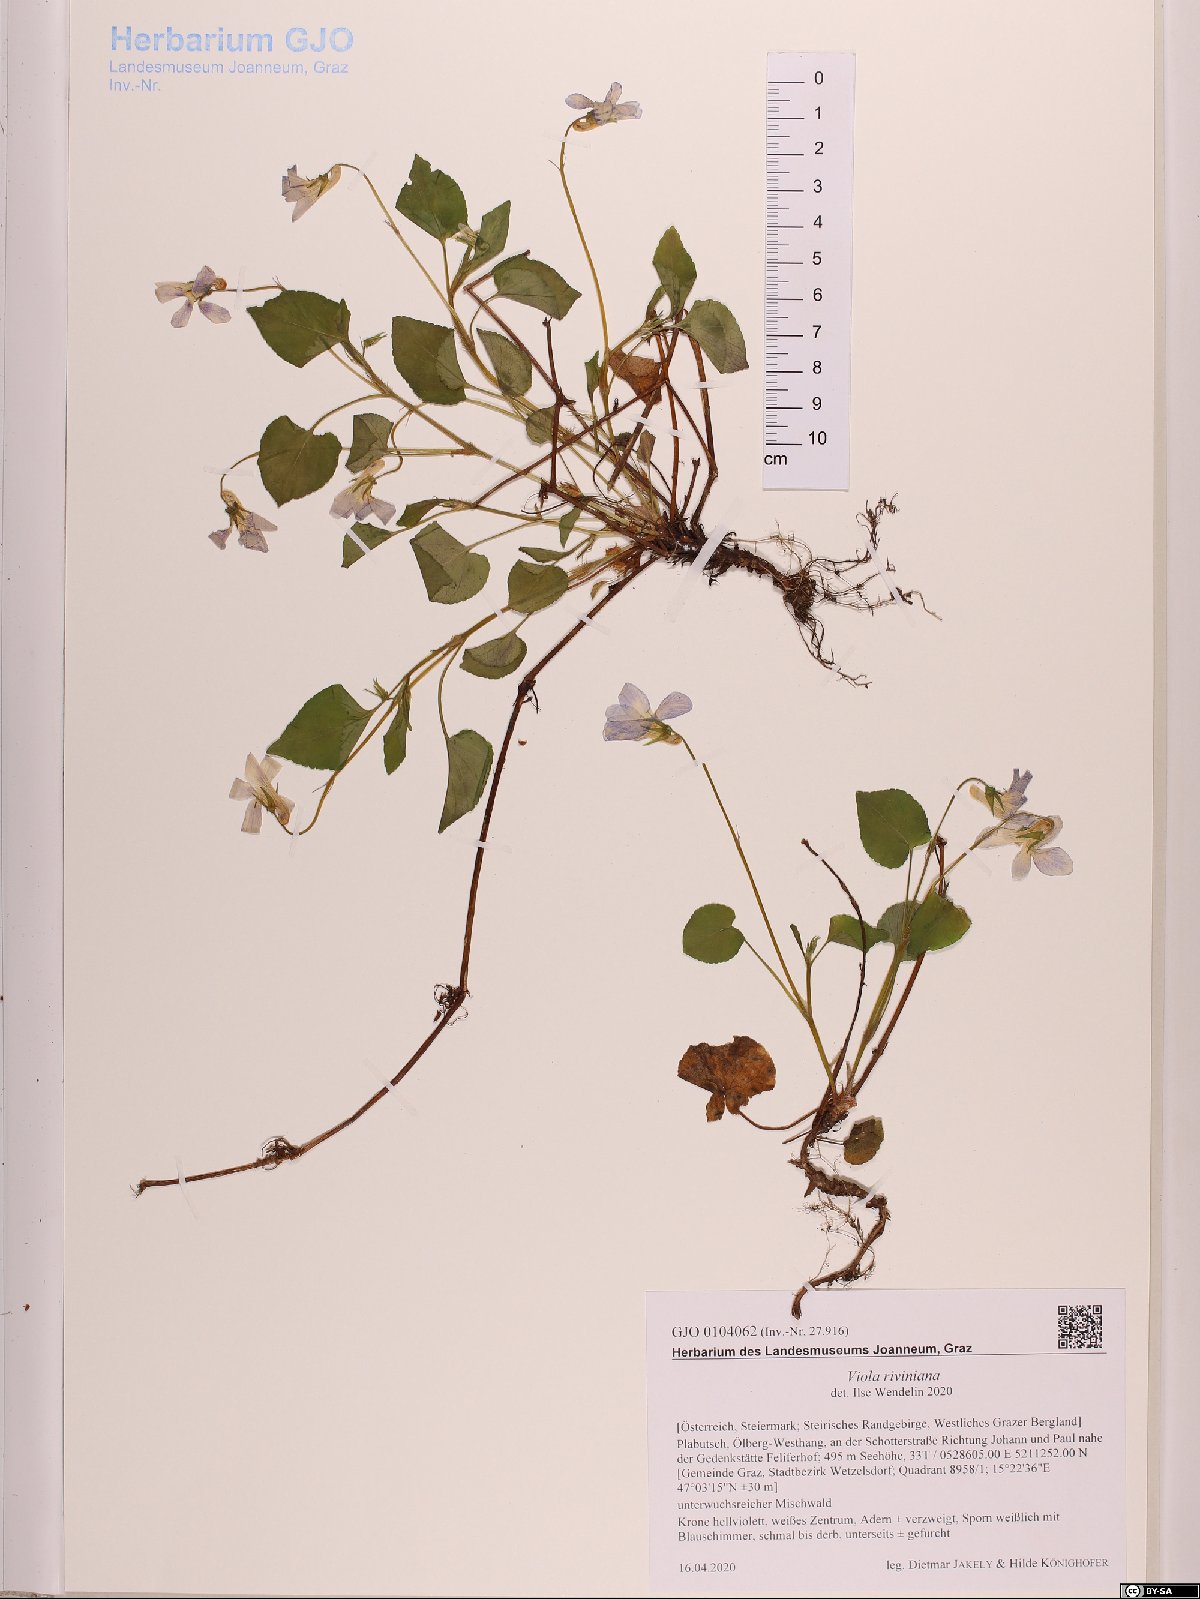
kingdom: Plantae
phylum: Tracheophyta
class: Magnoliopsida
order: Malpighiales
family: Violaceae
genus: Viola
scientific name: Viola riviniana
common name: Common dog-violet
